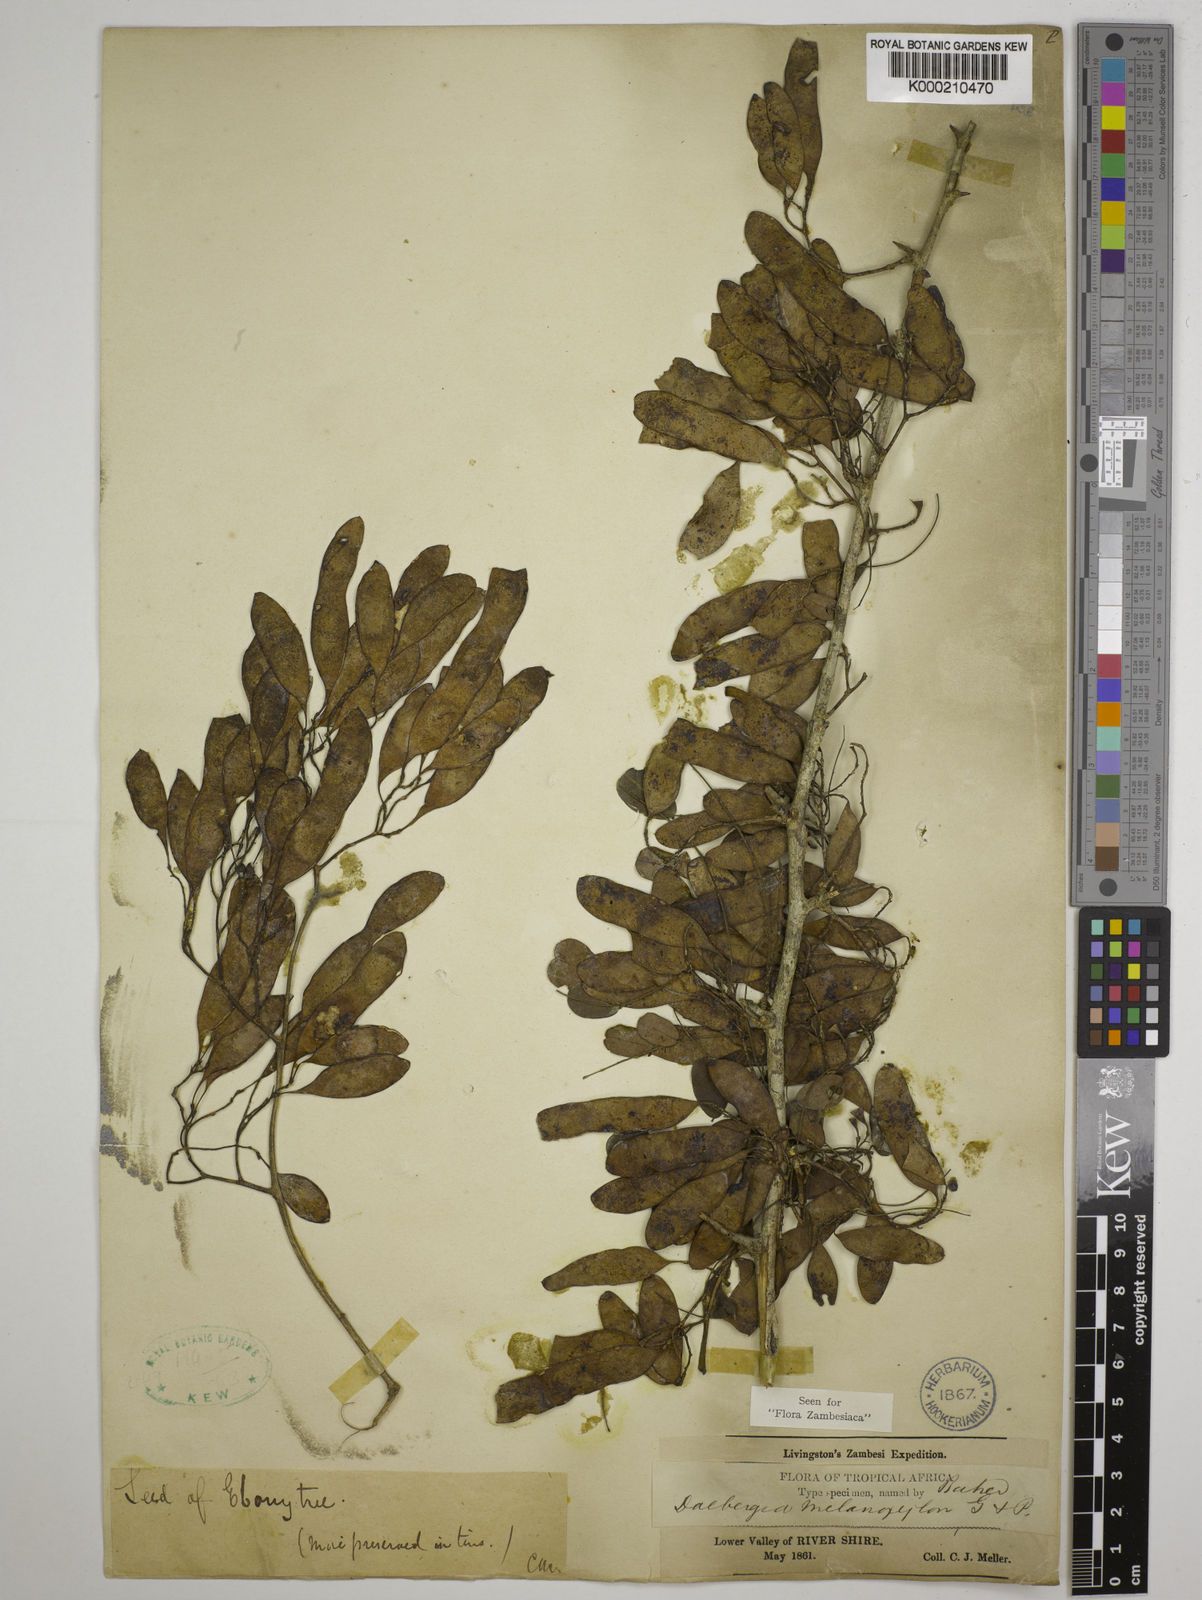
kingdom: Plantae
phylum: Tracheophyta
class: Magnoliopsida
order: Fabales
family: Fabaceae
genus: Dalbergia
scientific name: Dalbergia melanoxylon
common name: African blackwood
